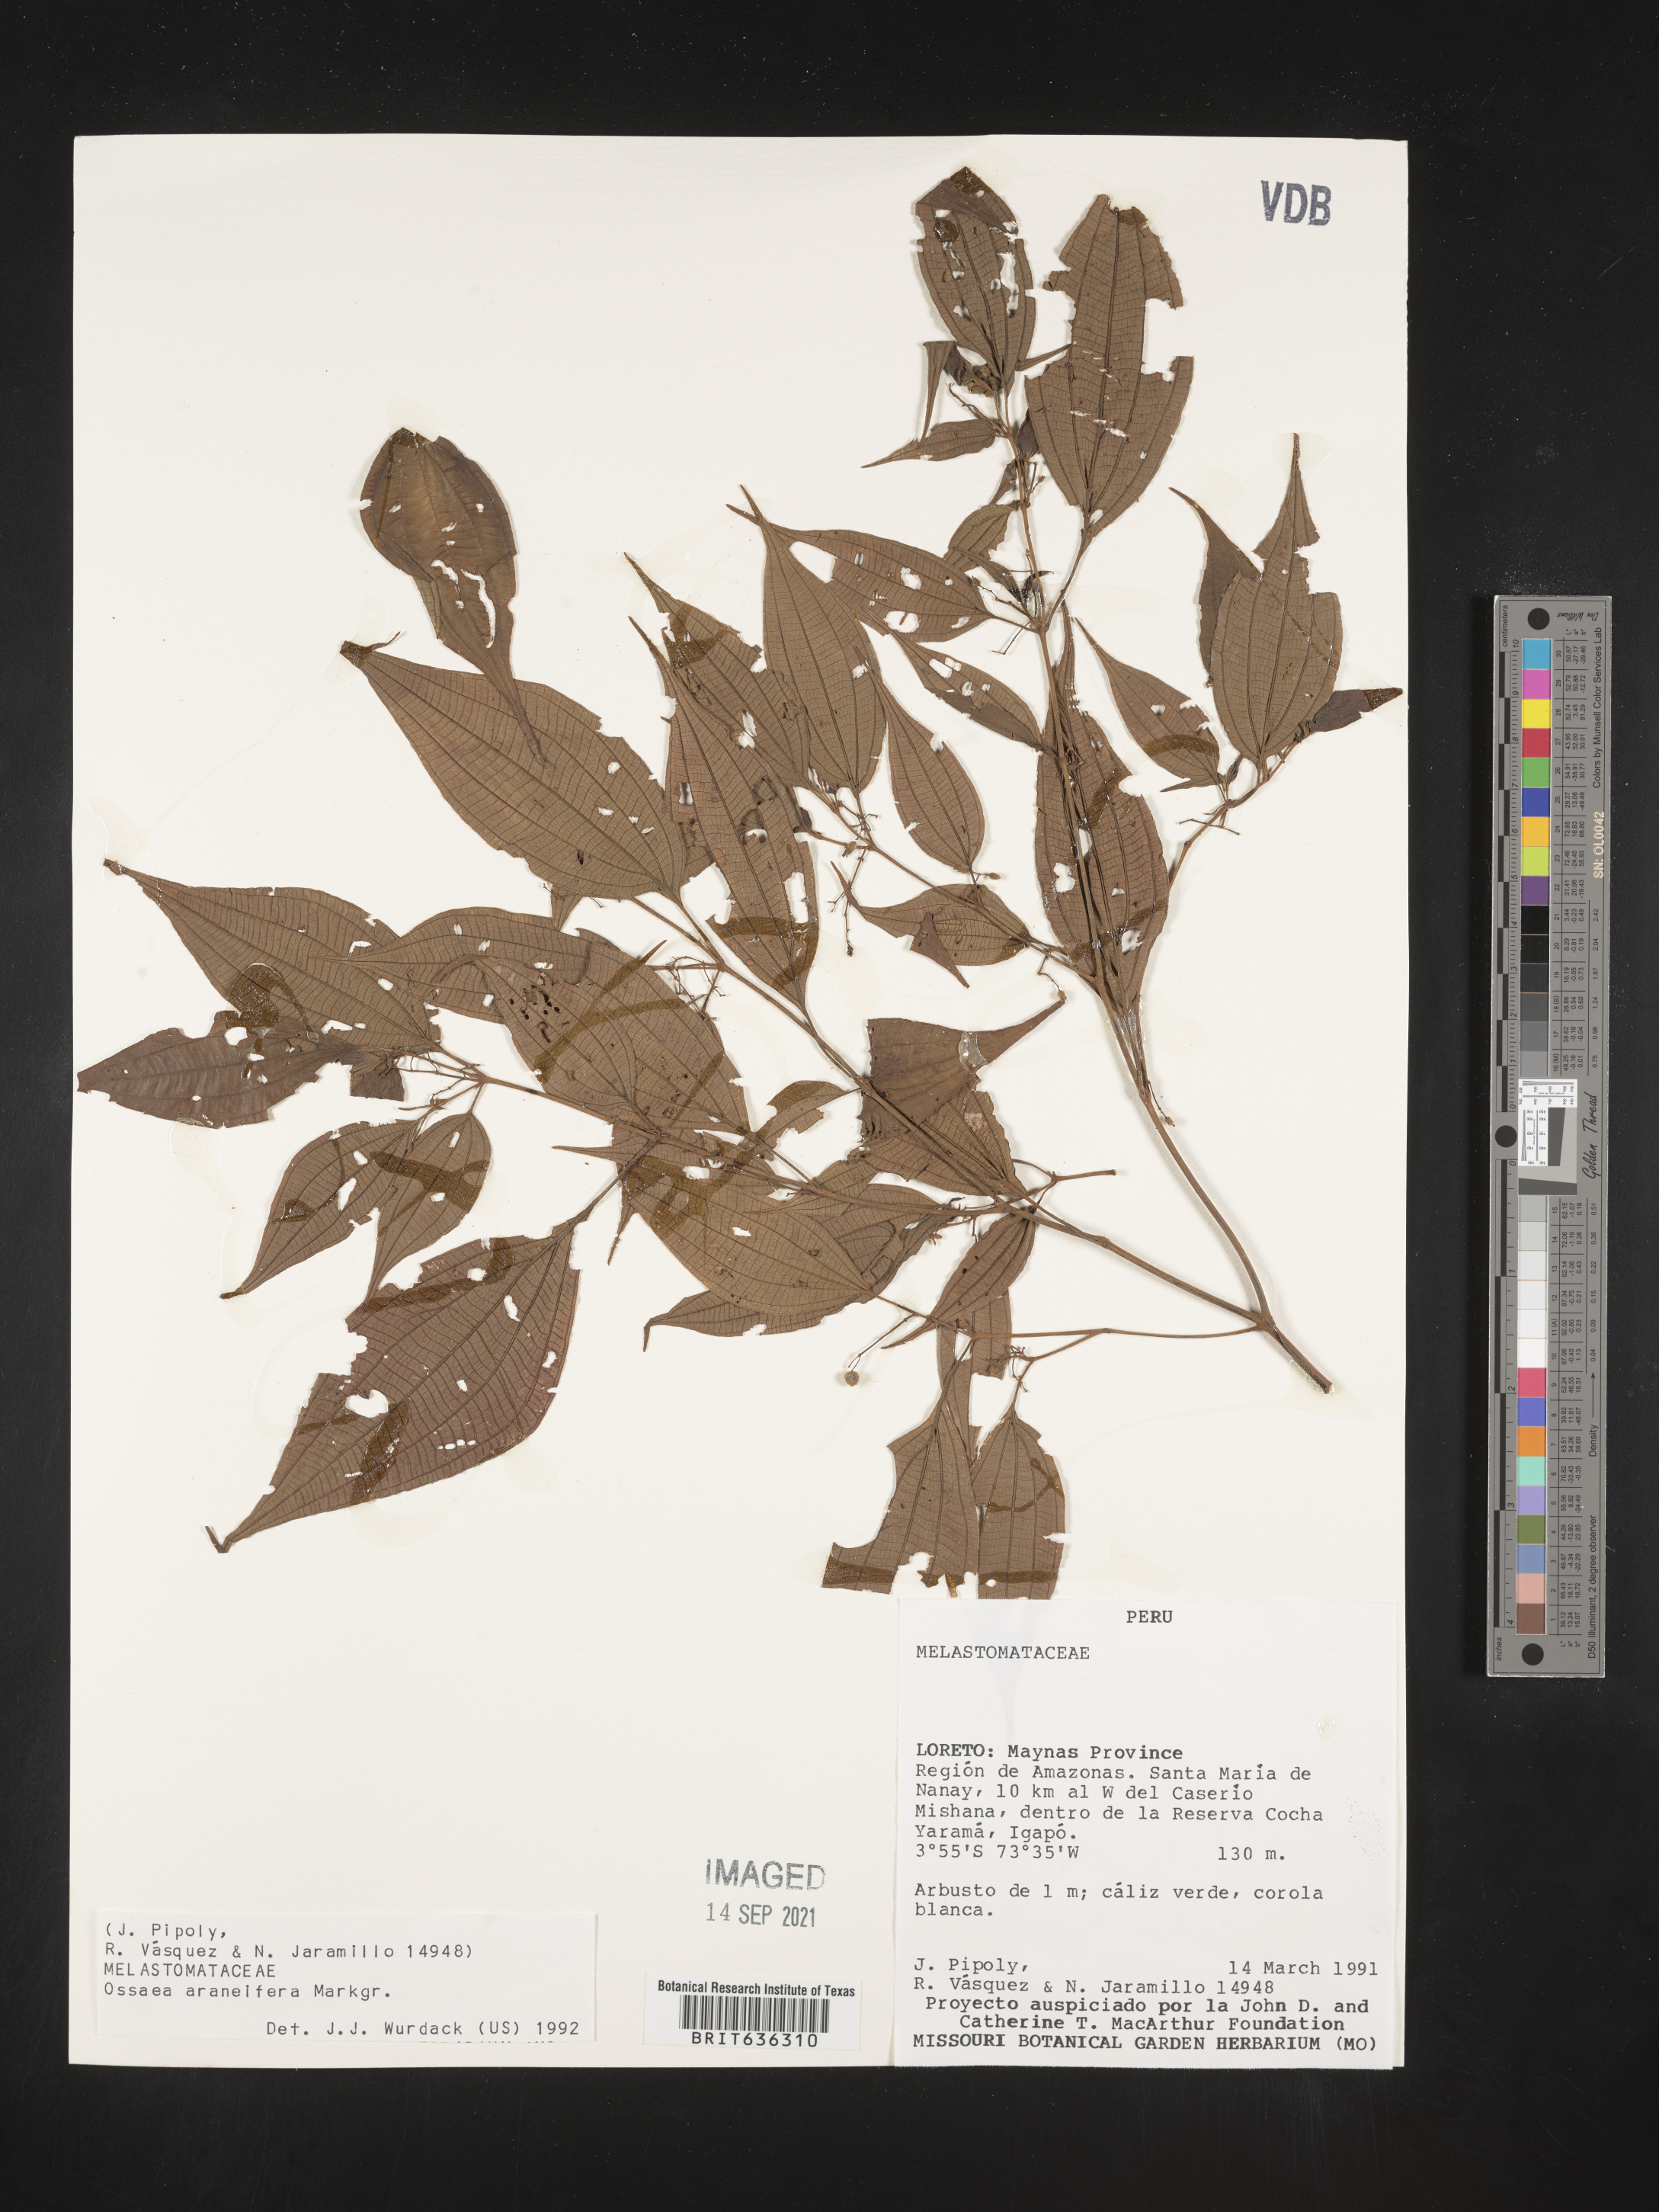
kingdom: Plantae
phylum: Tracheophyta
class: Magnoliopsida
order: Myrtales
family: Melastomataceae
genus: Ossaea
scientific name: Ossaea
